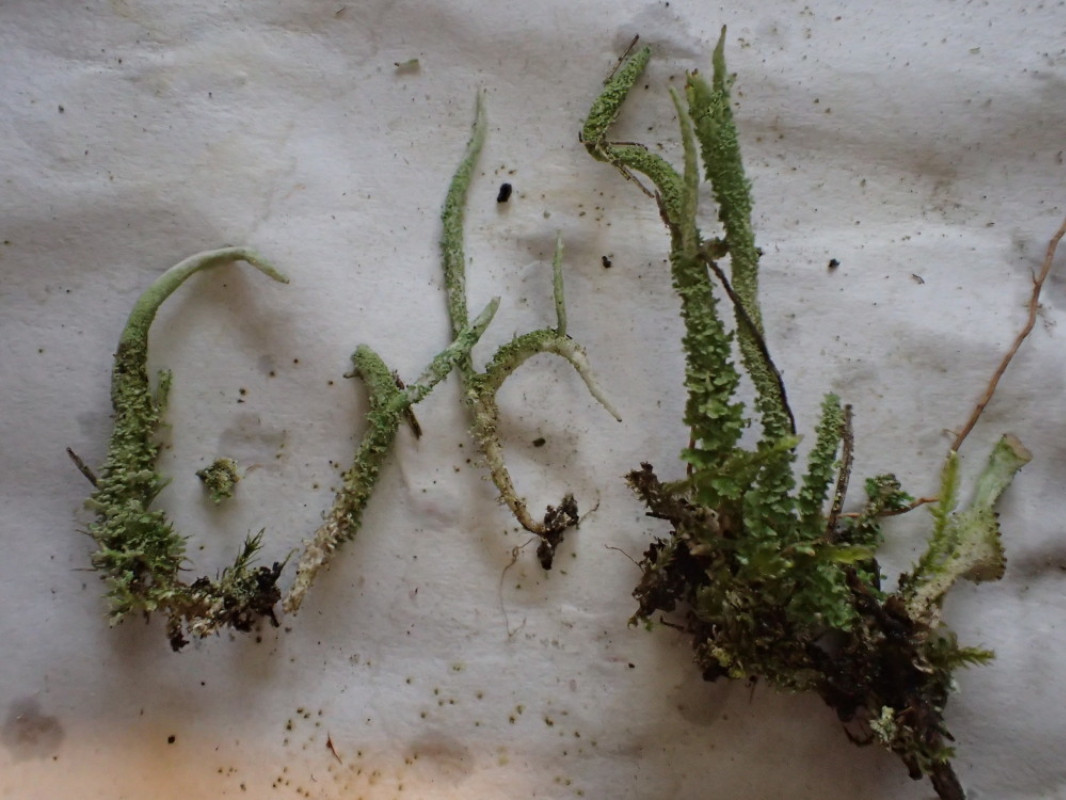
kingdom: Fungi
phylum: Ascomycota
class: Lecanoromycetes
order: Lecanorales
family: Cladoniaceae
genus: Cladonia
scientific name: Cladonia glauca
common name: grågrøn bægerlav
